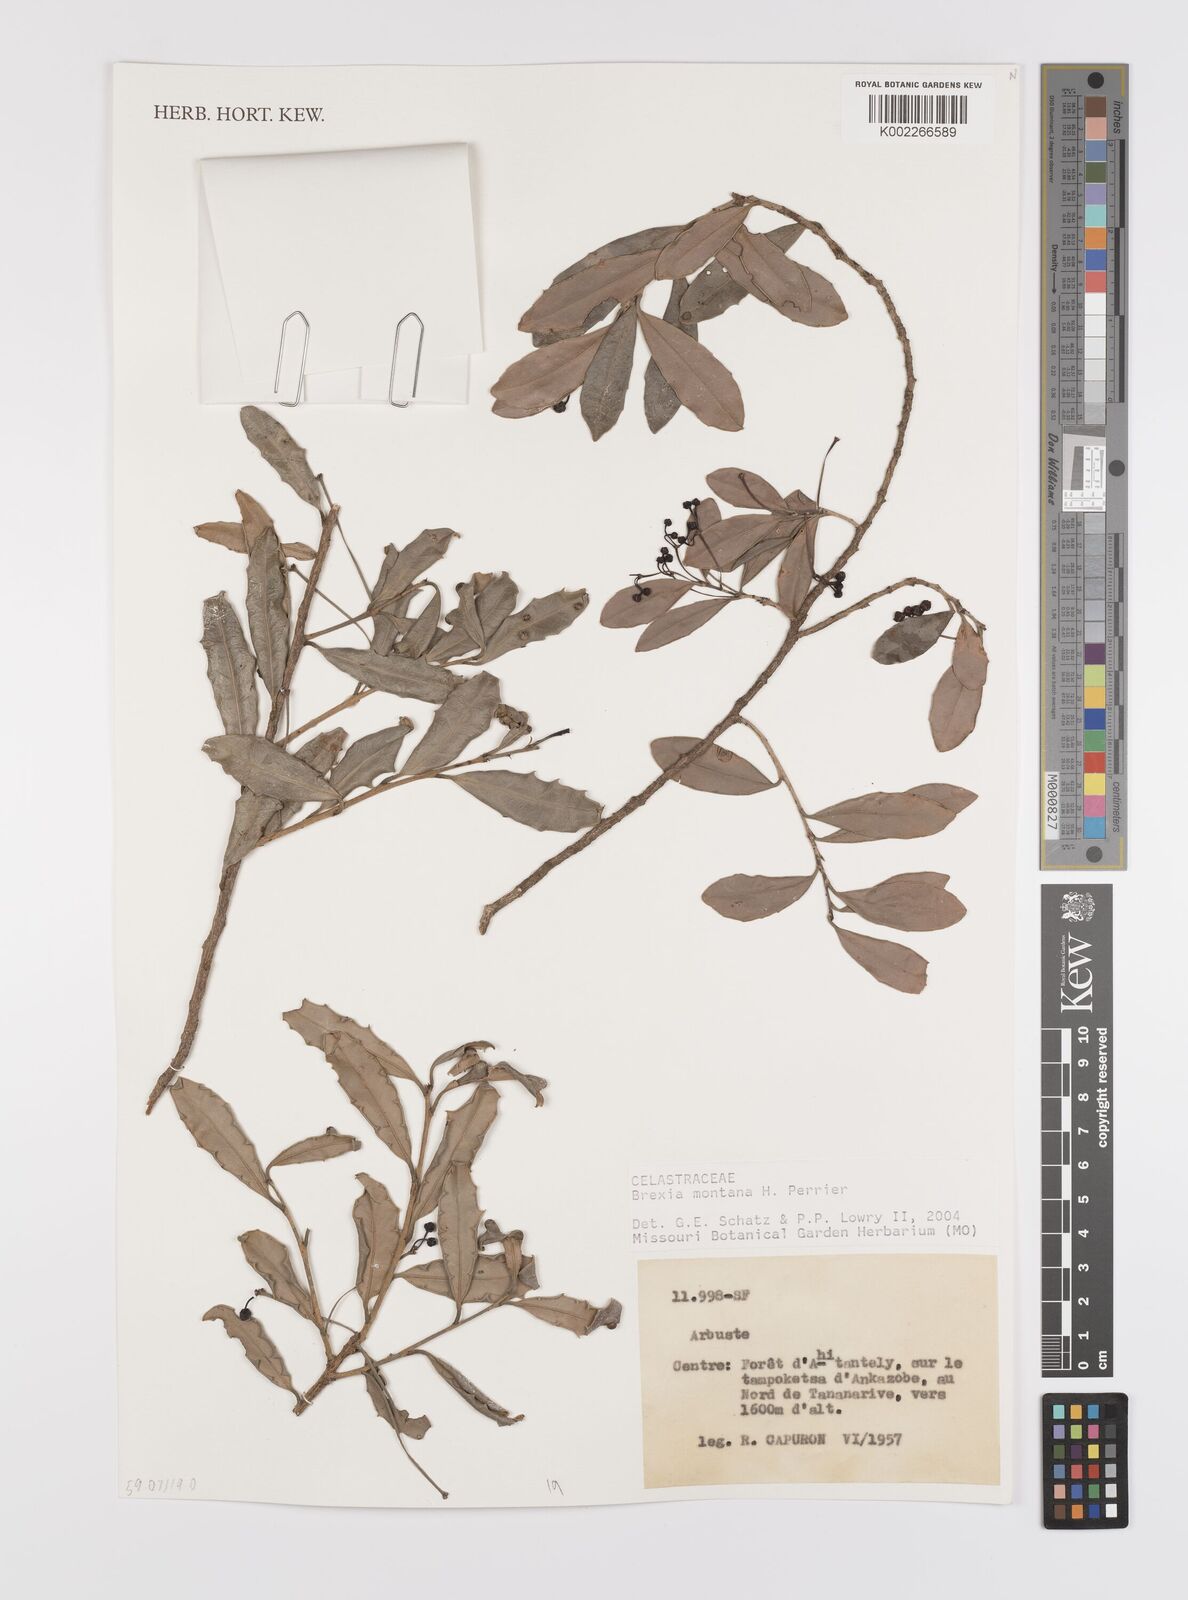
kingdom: Plantae
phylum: Tracheophyta
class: Magnoliopsida
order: Celastrales
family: Celastraceae
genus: Brexia
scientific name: Brexia montana
